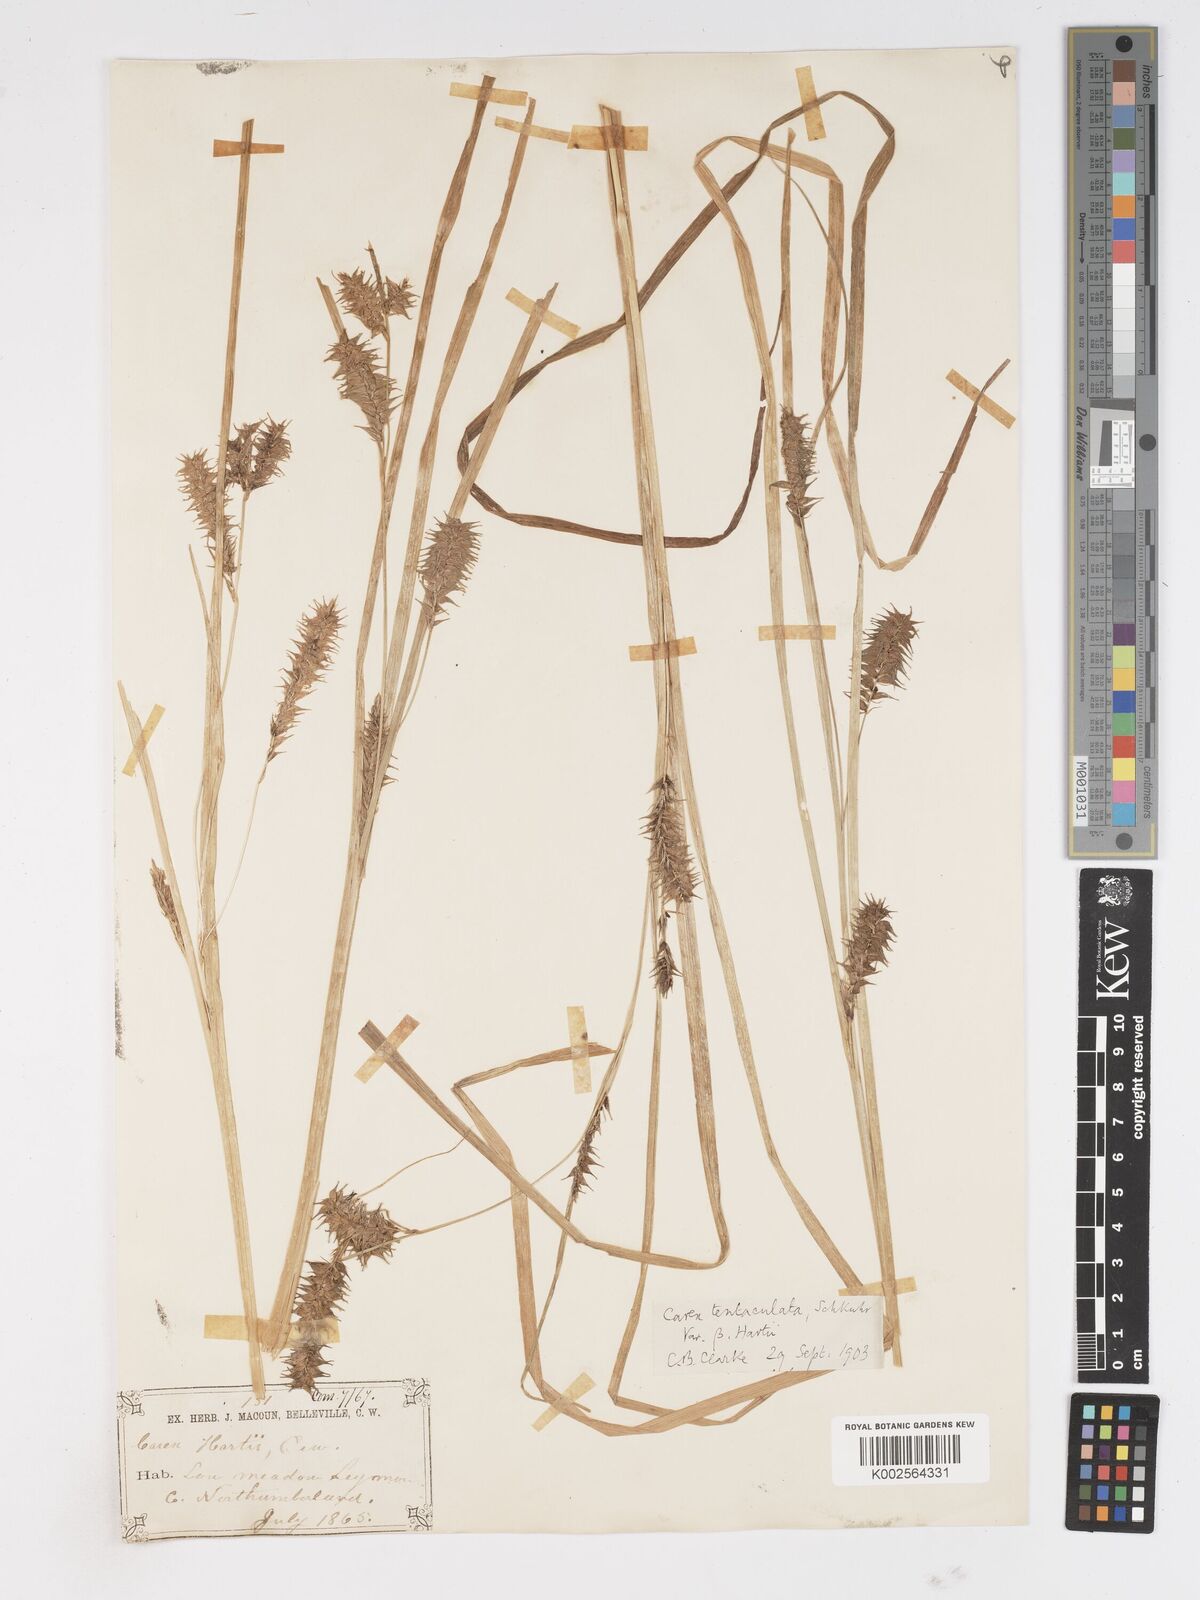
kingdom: Plantae
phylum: Tracheophyta
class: Liliopsida
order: Poales
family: Cyperaceae
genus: Carex
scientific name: Carex lurida
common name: Sallow sedge
